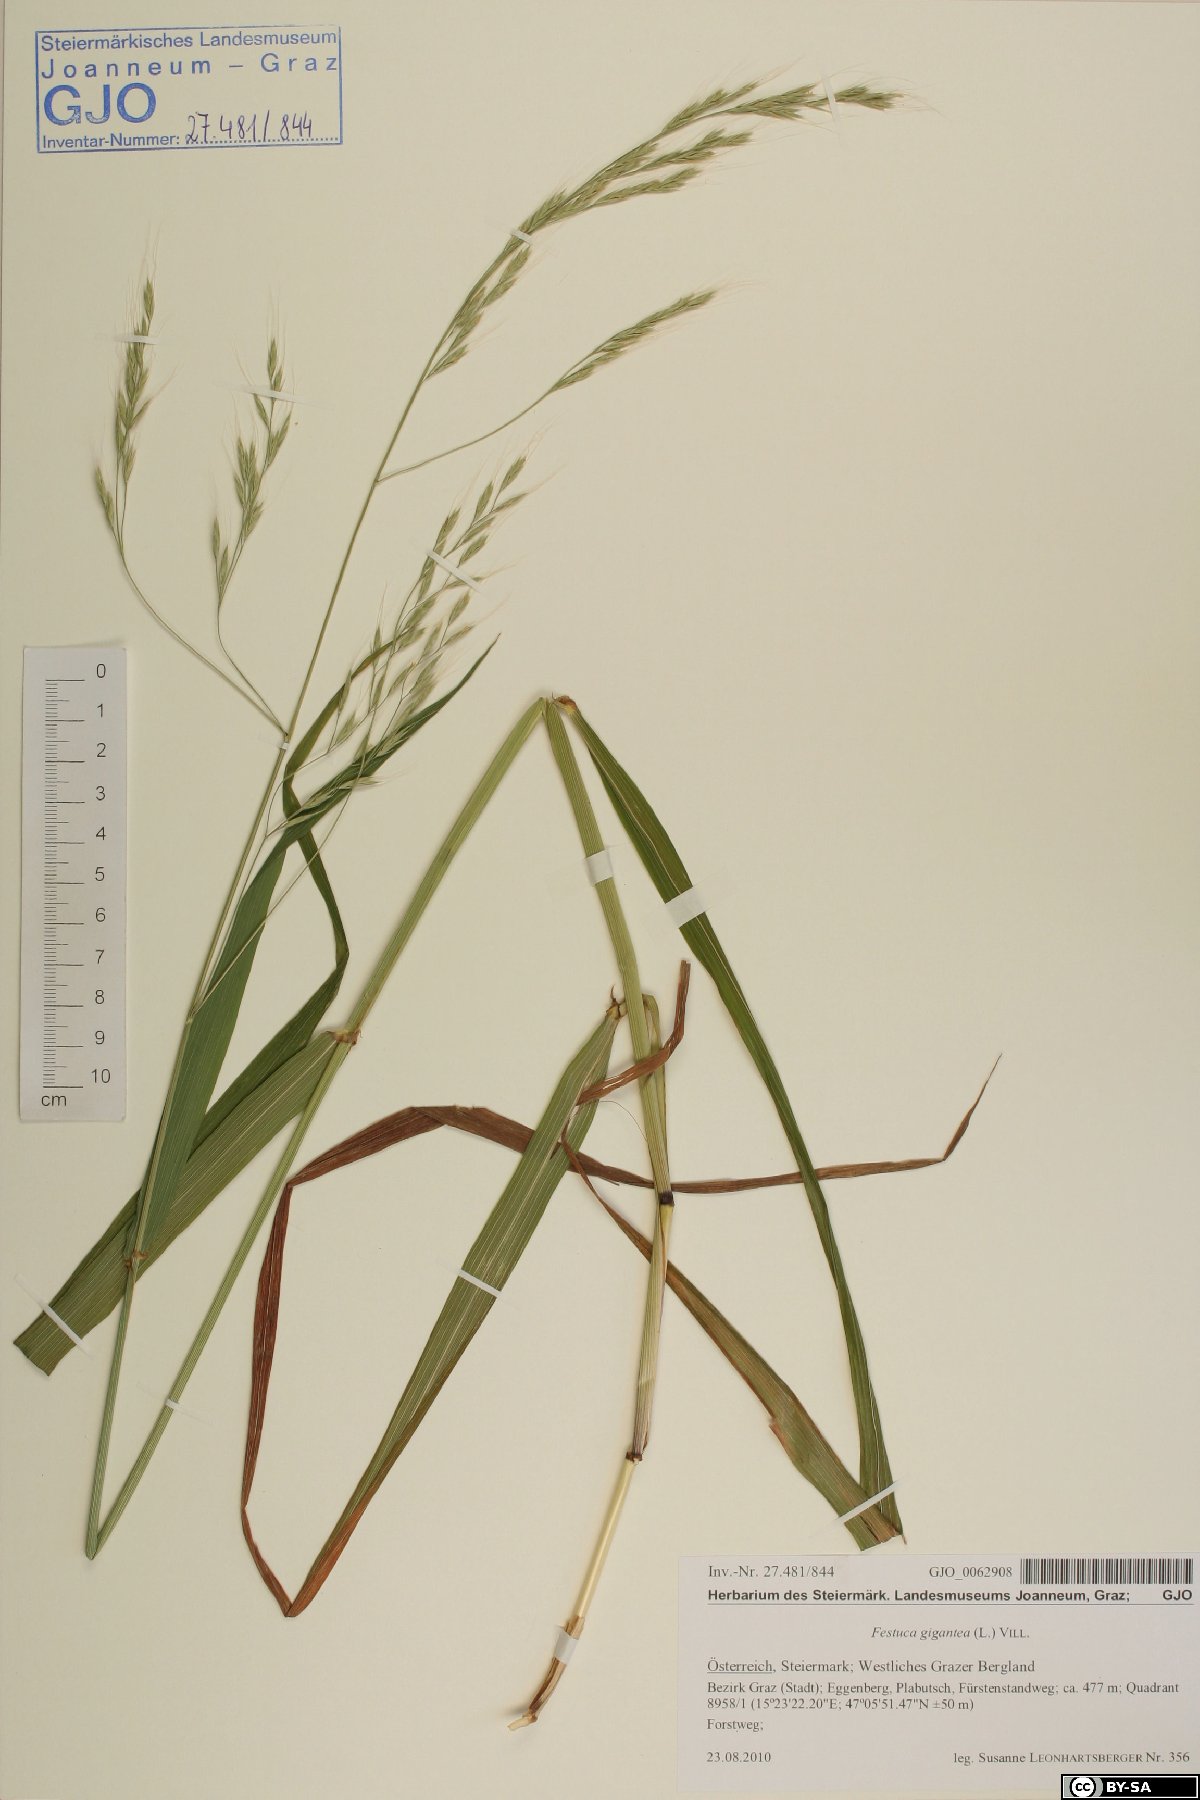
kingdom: Plantae
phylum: Tracheophyta
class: Liliopsida
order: Poales
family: Poaceae
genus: Lolium
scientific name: Lolium giganteum
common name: Giant fescue
